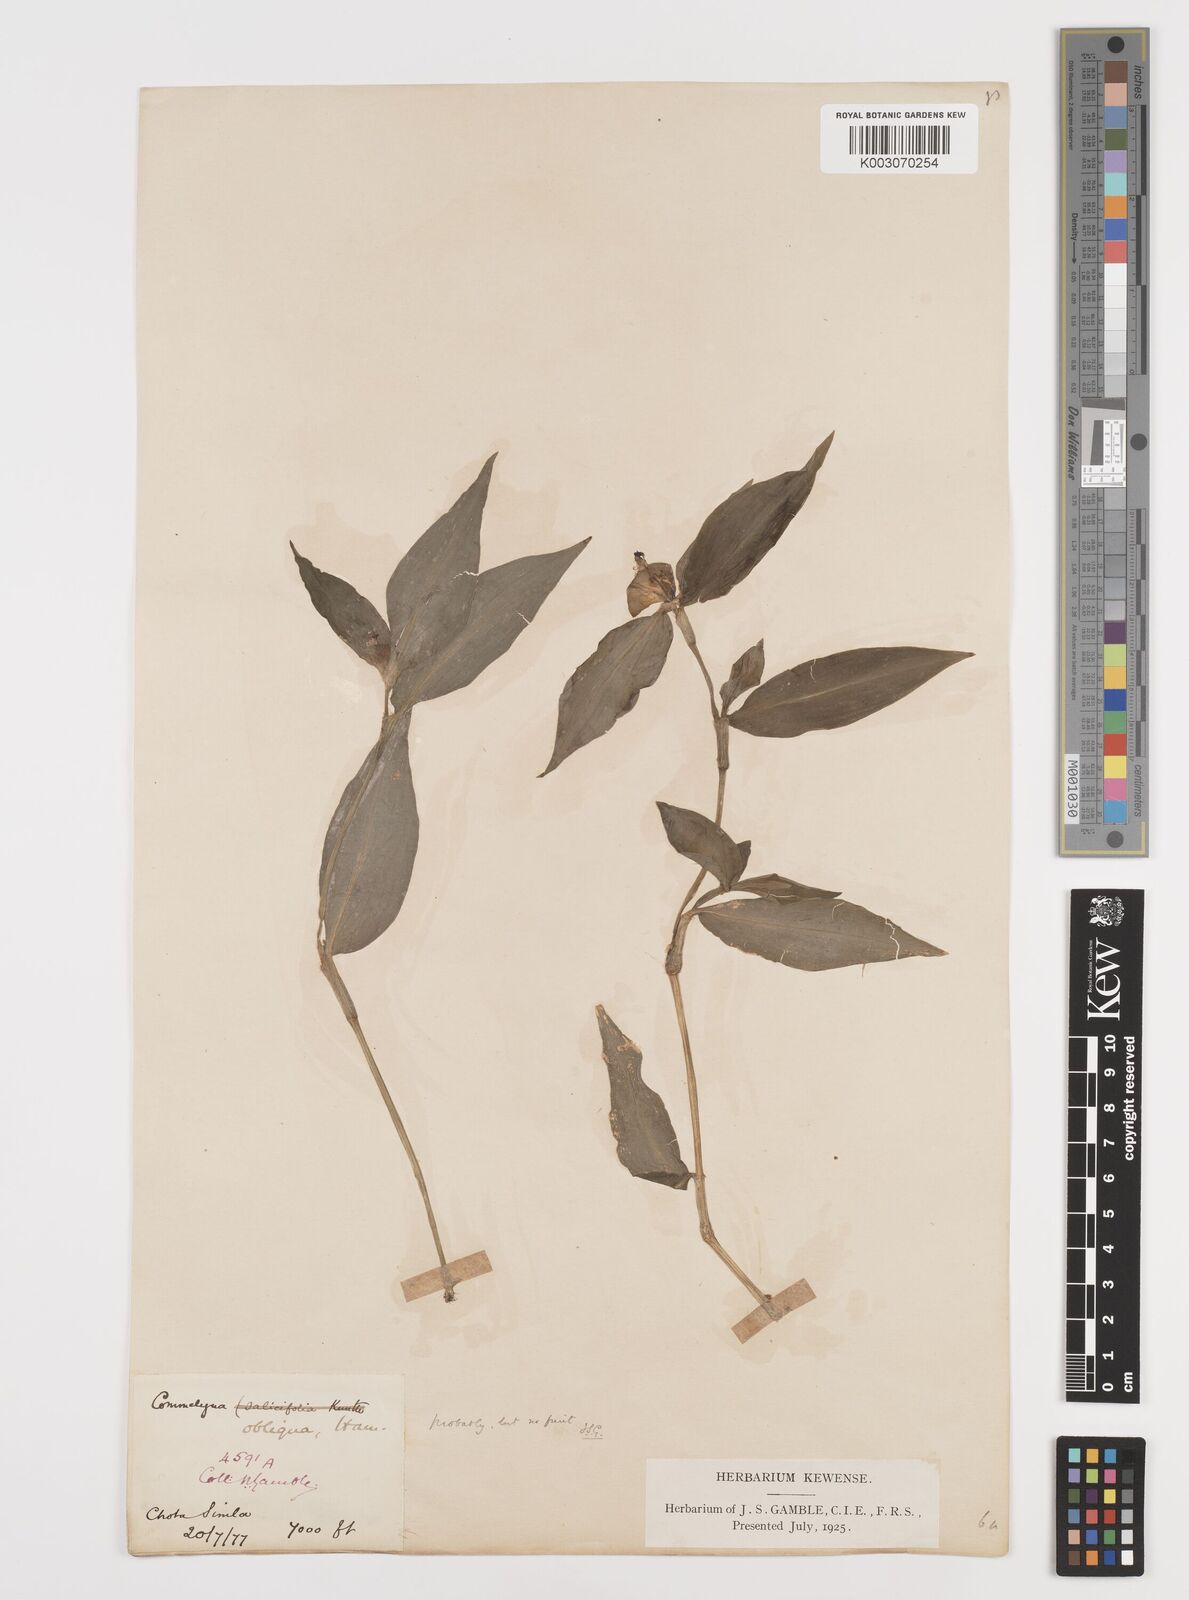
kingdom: Plantae
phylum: Tracheophyta
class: Liliopsida
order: Commelinales
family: Commelinaceae
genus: Commelina
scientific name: Commelina paludosa
